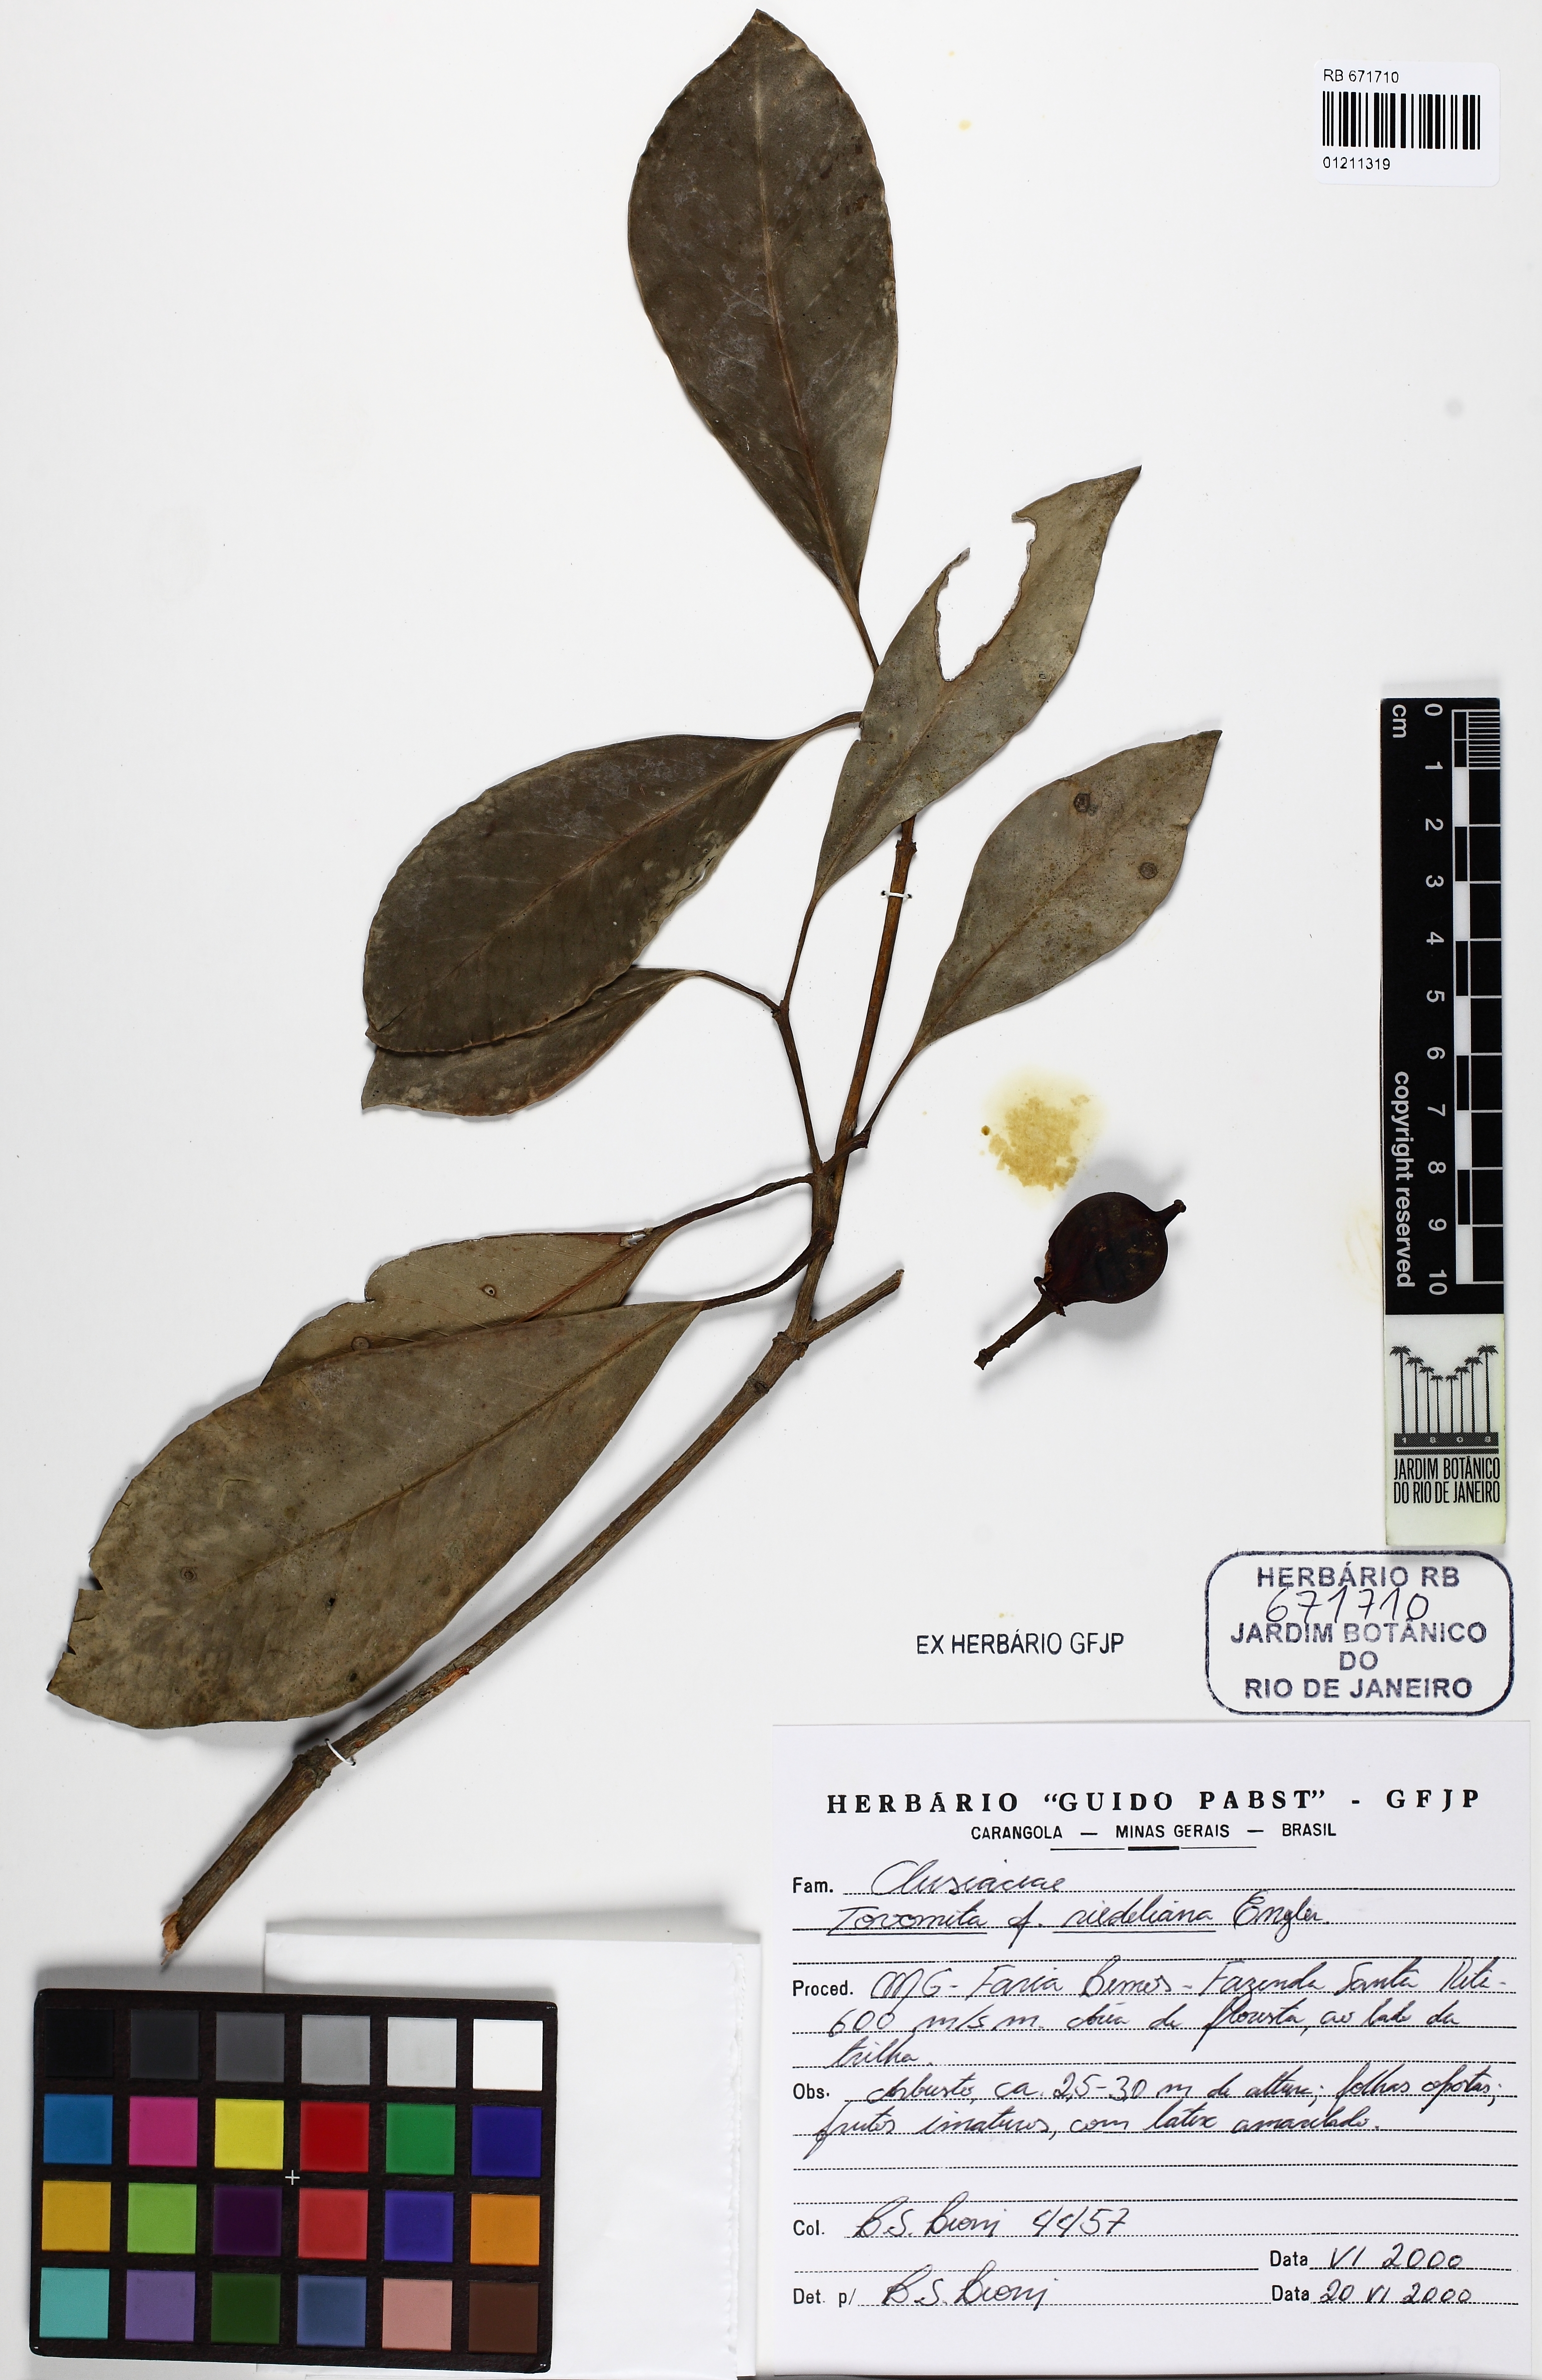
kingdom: Plantae
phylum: Tracheophyta
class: Magnoliopsida
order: Malpighiales
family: Clusiaceae
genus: Tovomita
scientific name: Tovomita riedeliana
